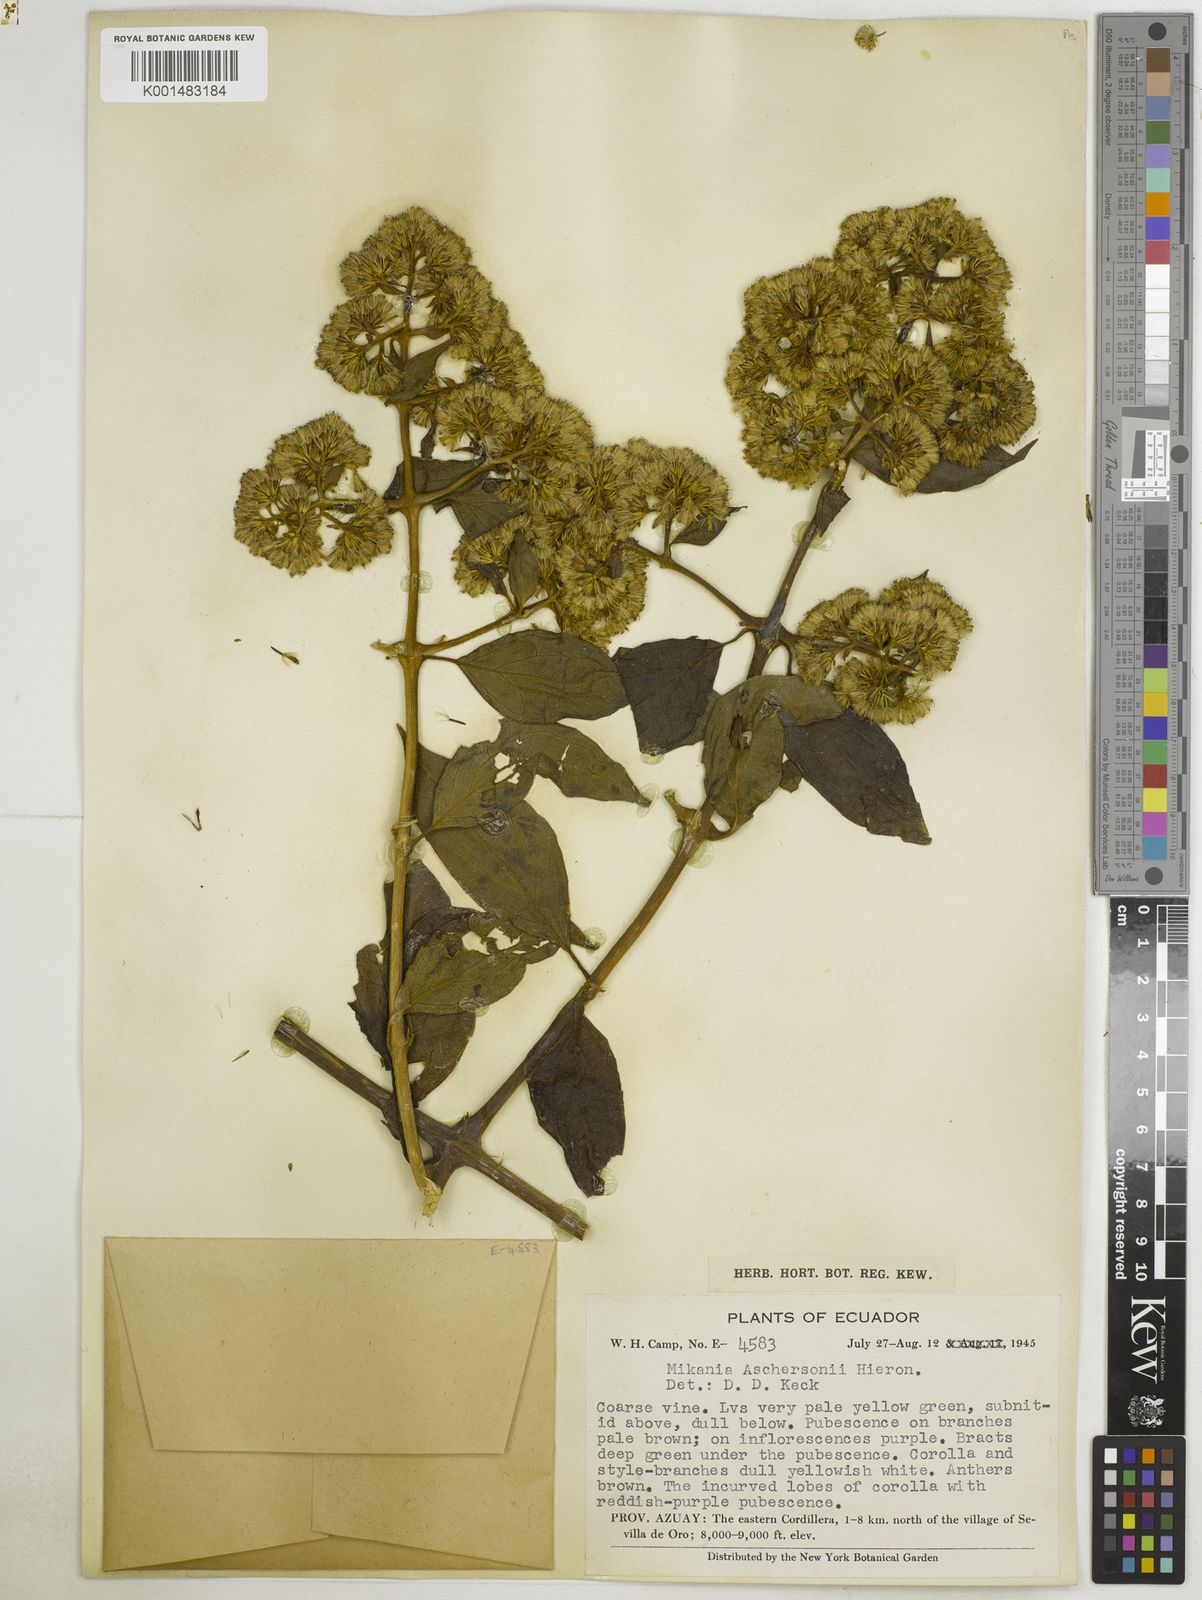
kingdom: Plantae
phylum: Tracheophyta
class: Magnoliopsida
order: Asterales
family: Asteraceae
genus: Mikania
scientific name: Mikania aschersonii
